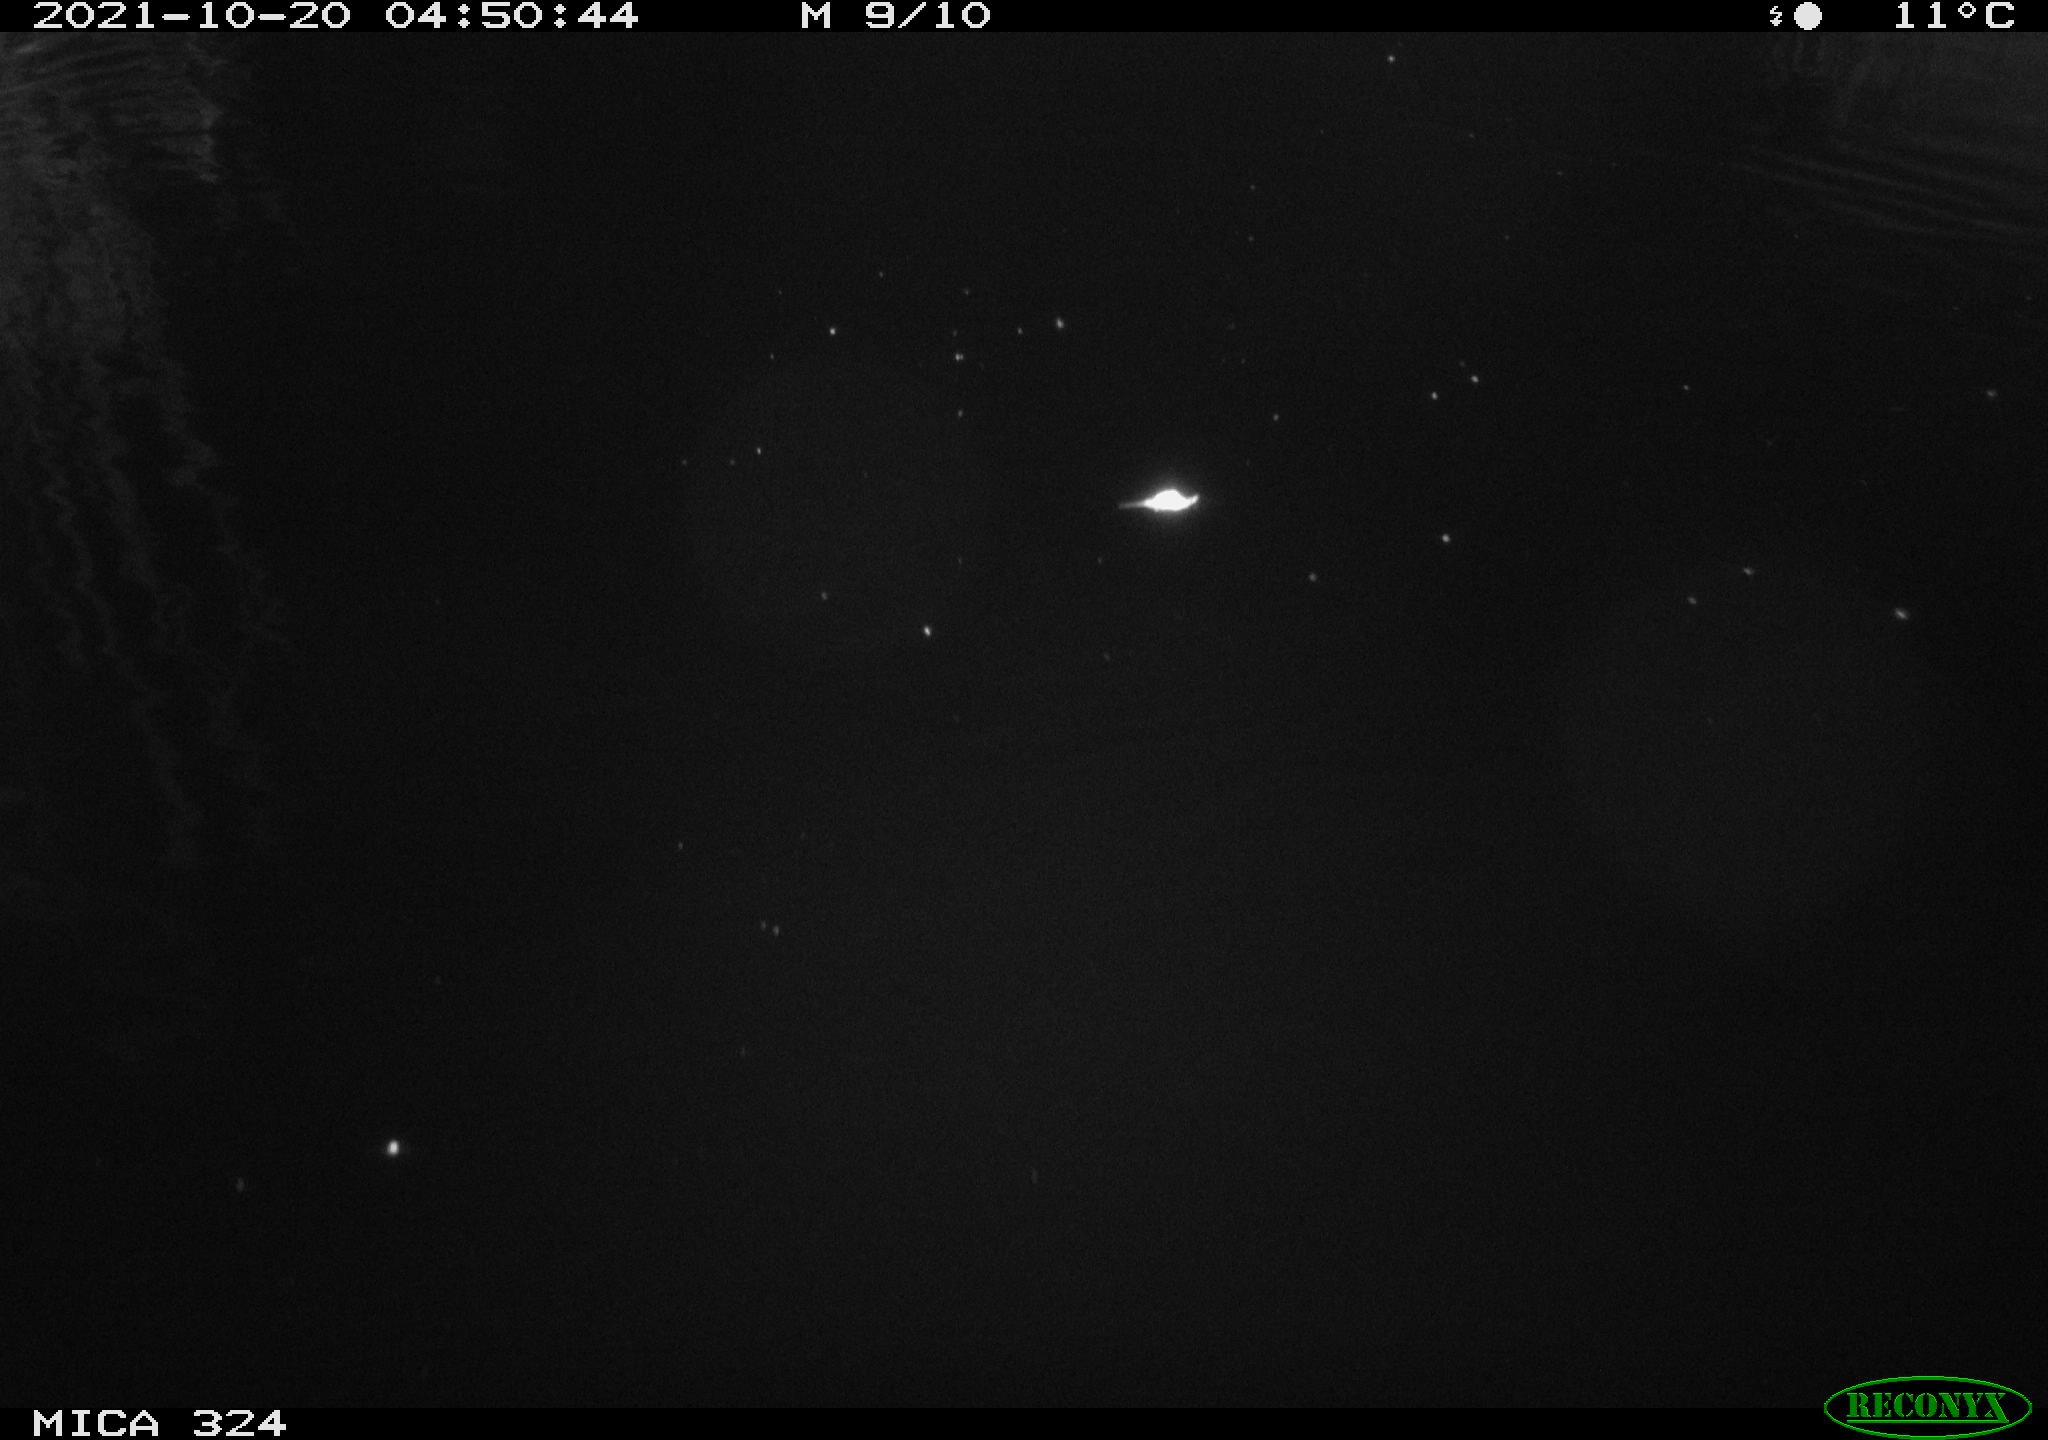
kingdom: Animalia
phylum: Chordata
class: Mammalia
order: Rodentia
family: Cricetidae
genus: Ondatra
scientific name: Ondatra zibethicus
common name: Muskrat
